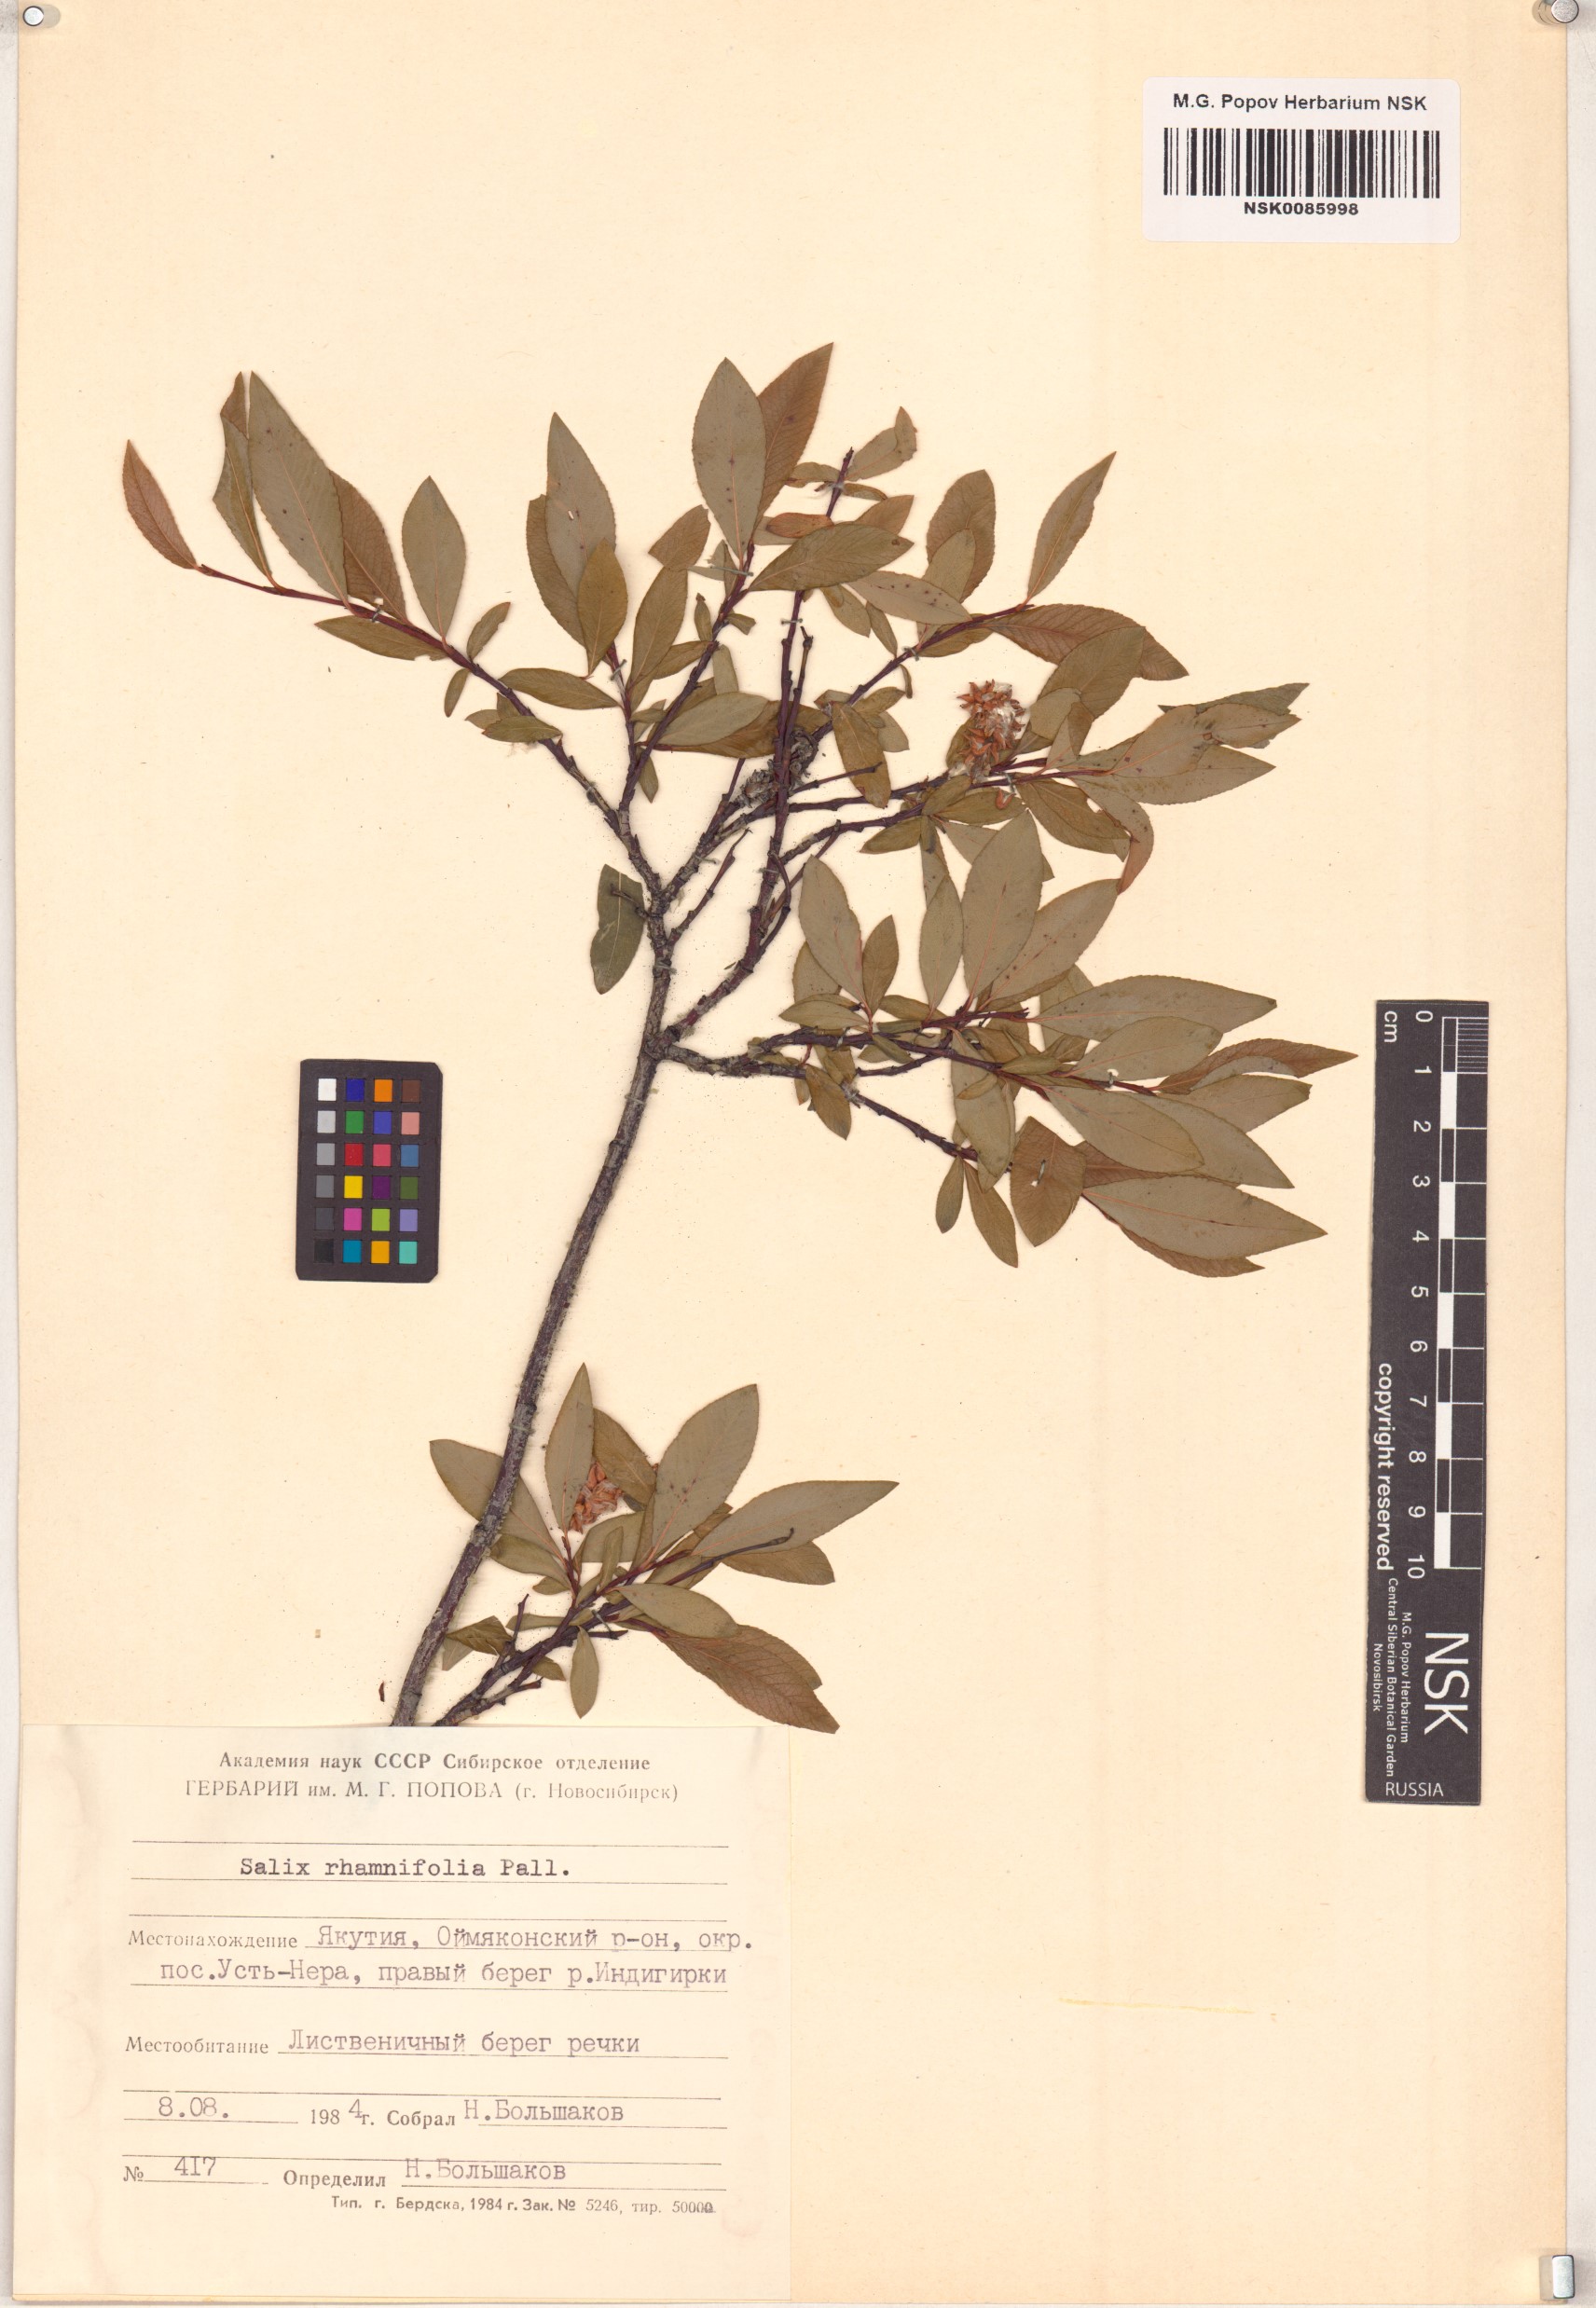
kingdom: Plantae
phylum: Tracheophyta
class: Magnoliopsida
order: Malpighiales
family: Salicaceae
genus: Salix
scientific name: Salix rhamnifolia
